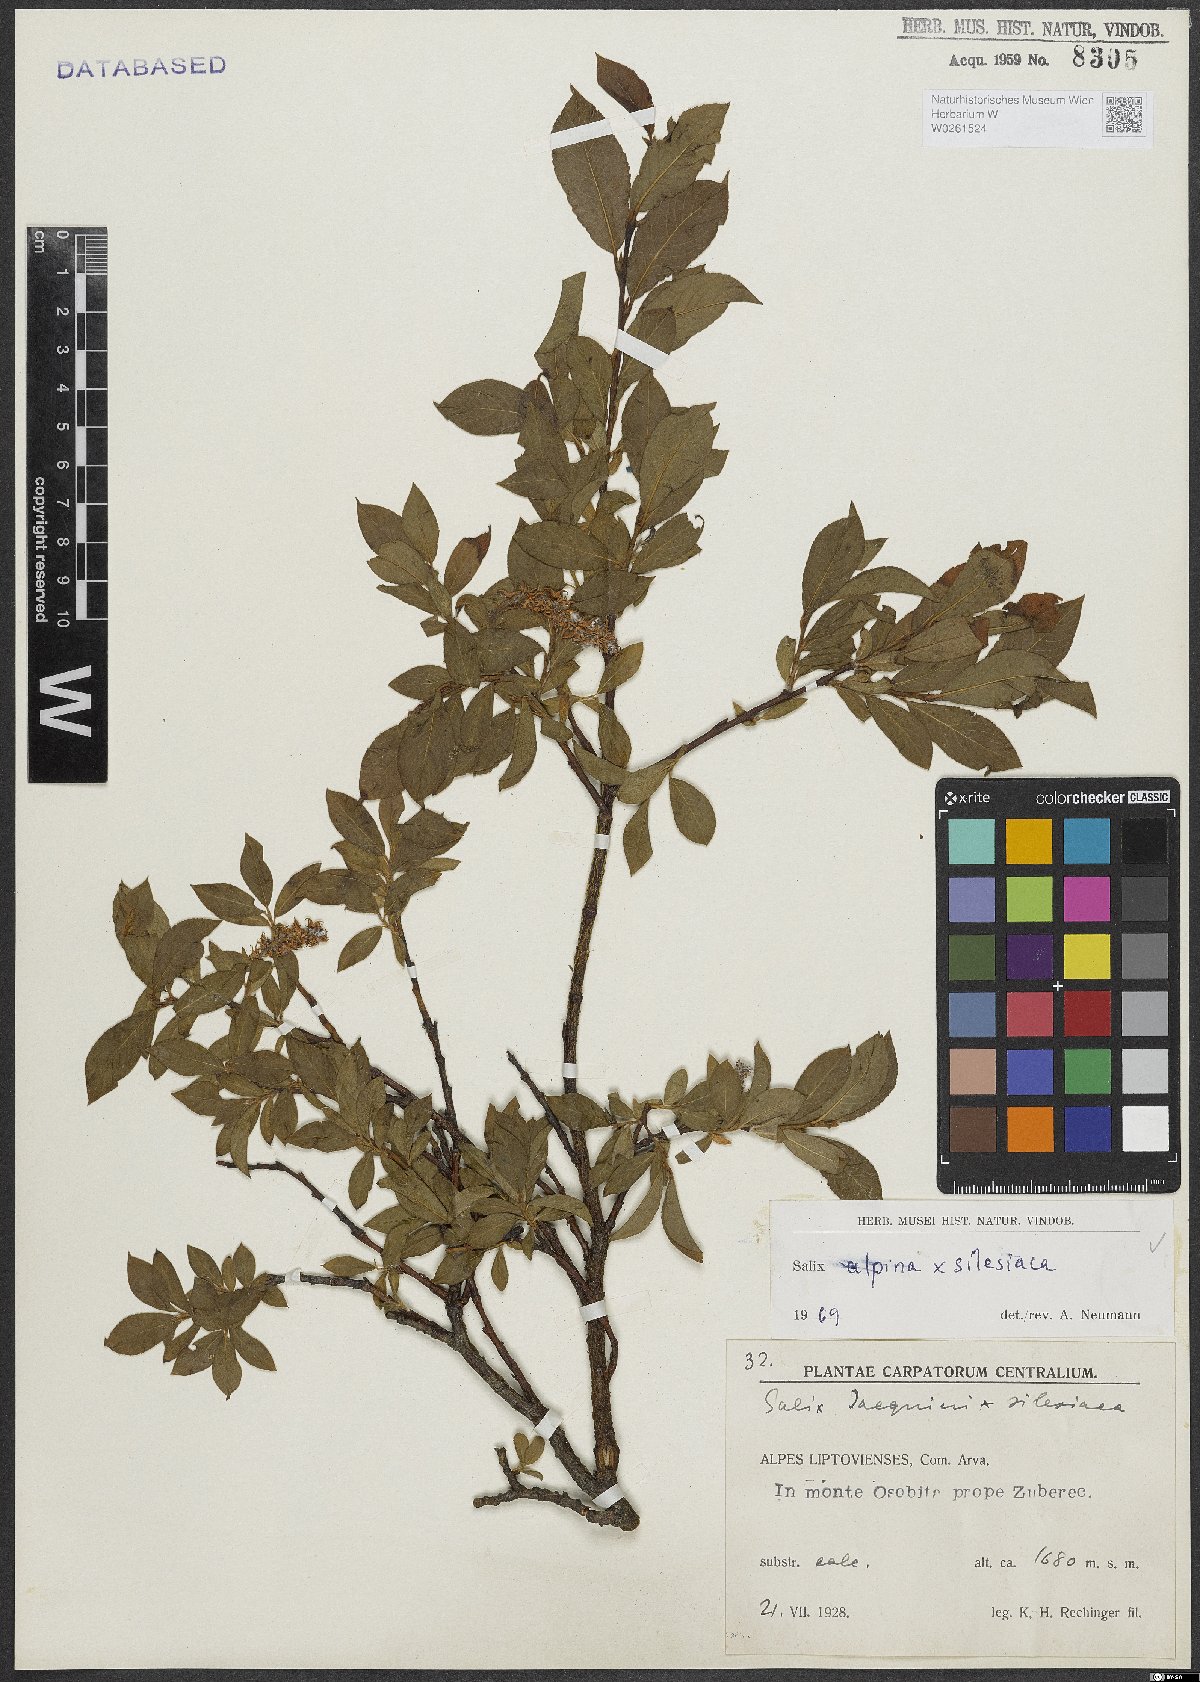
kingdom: Plantae
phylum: Tracheophyta
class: Magnoliopsida
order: Malpighiales
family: Salicaceae
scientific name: Salicaceae
